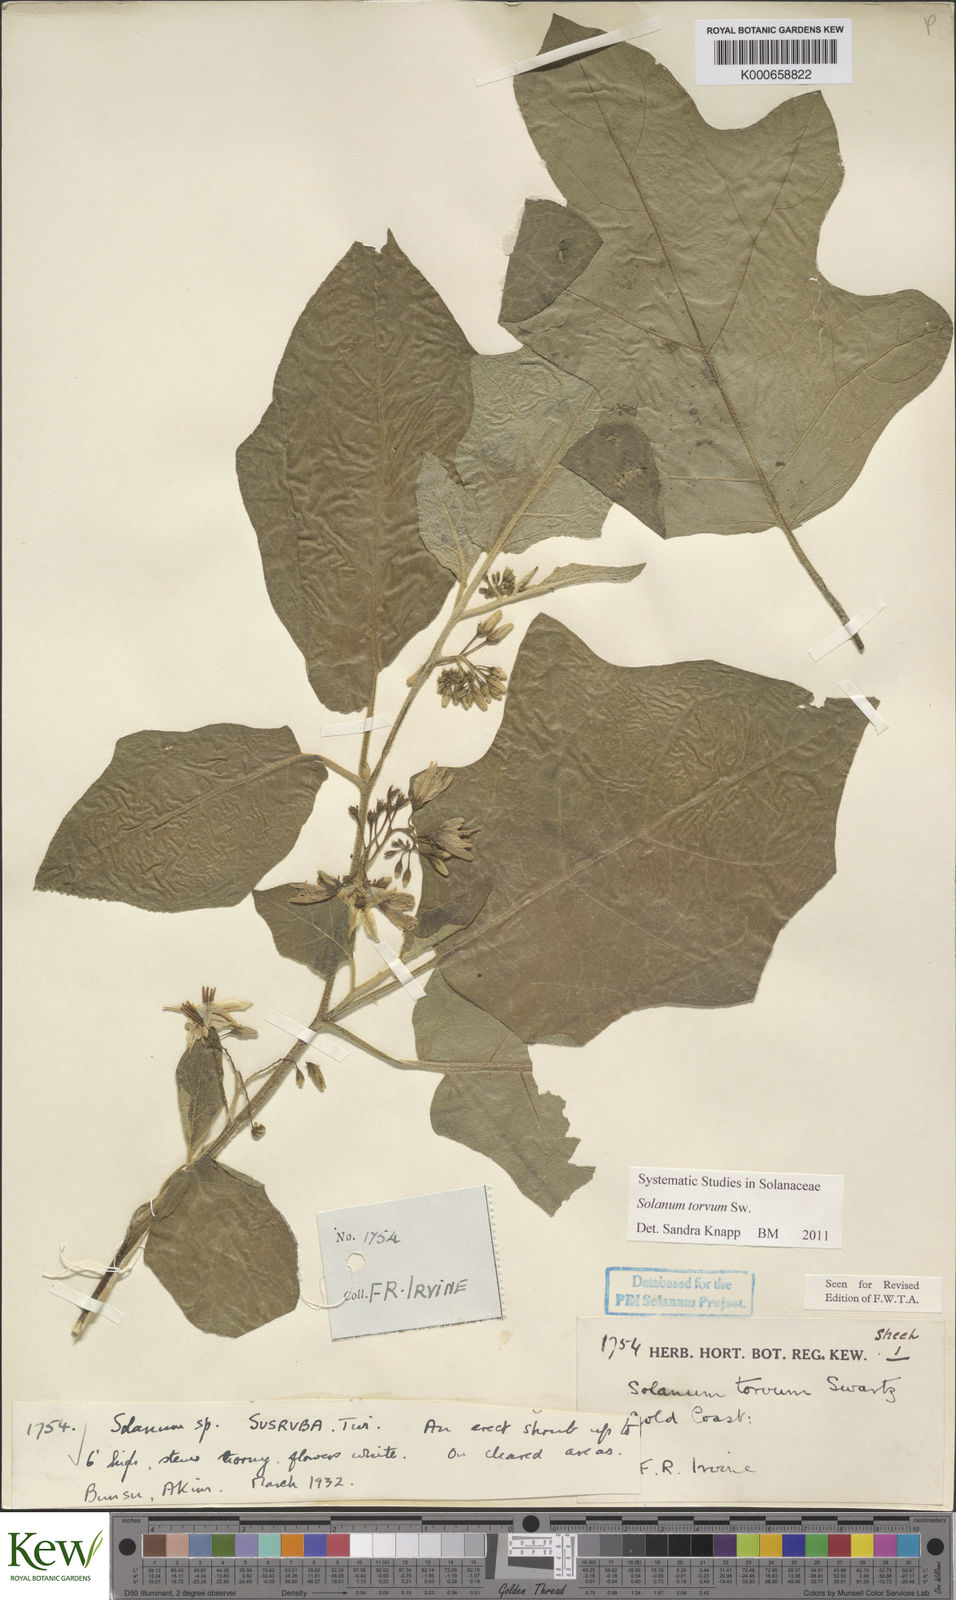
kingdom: Plantae
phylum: Tracheophyta
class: Magnoliopsida
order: Solanales
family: Solanaceae
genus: Solanum
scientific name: Solanum torvum
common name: Turkey berry
